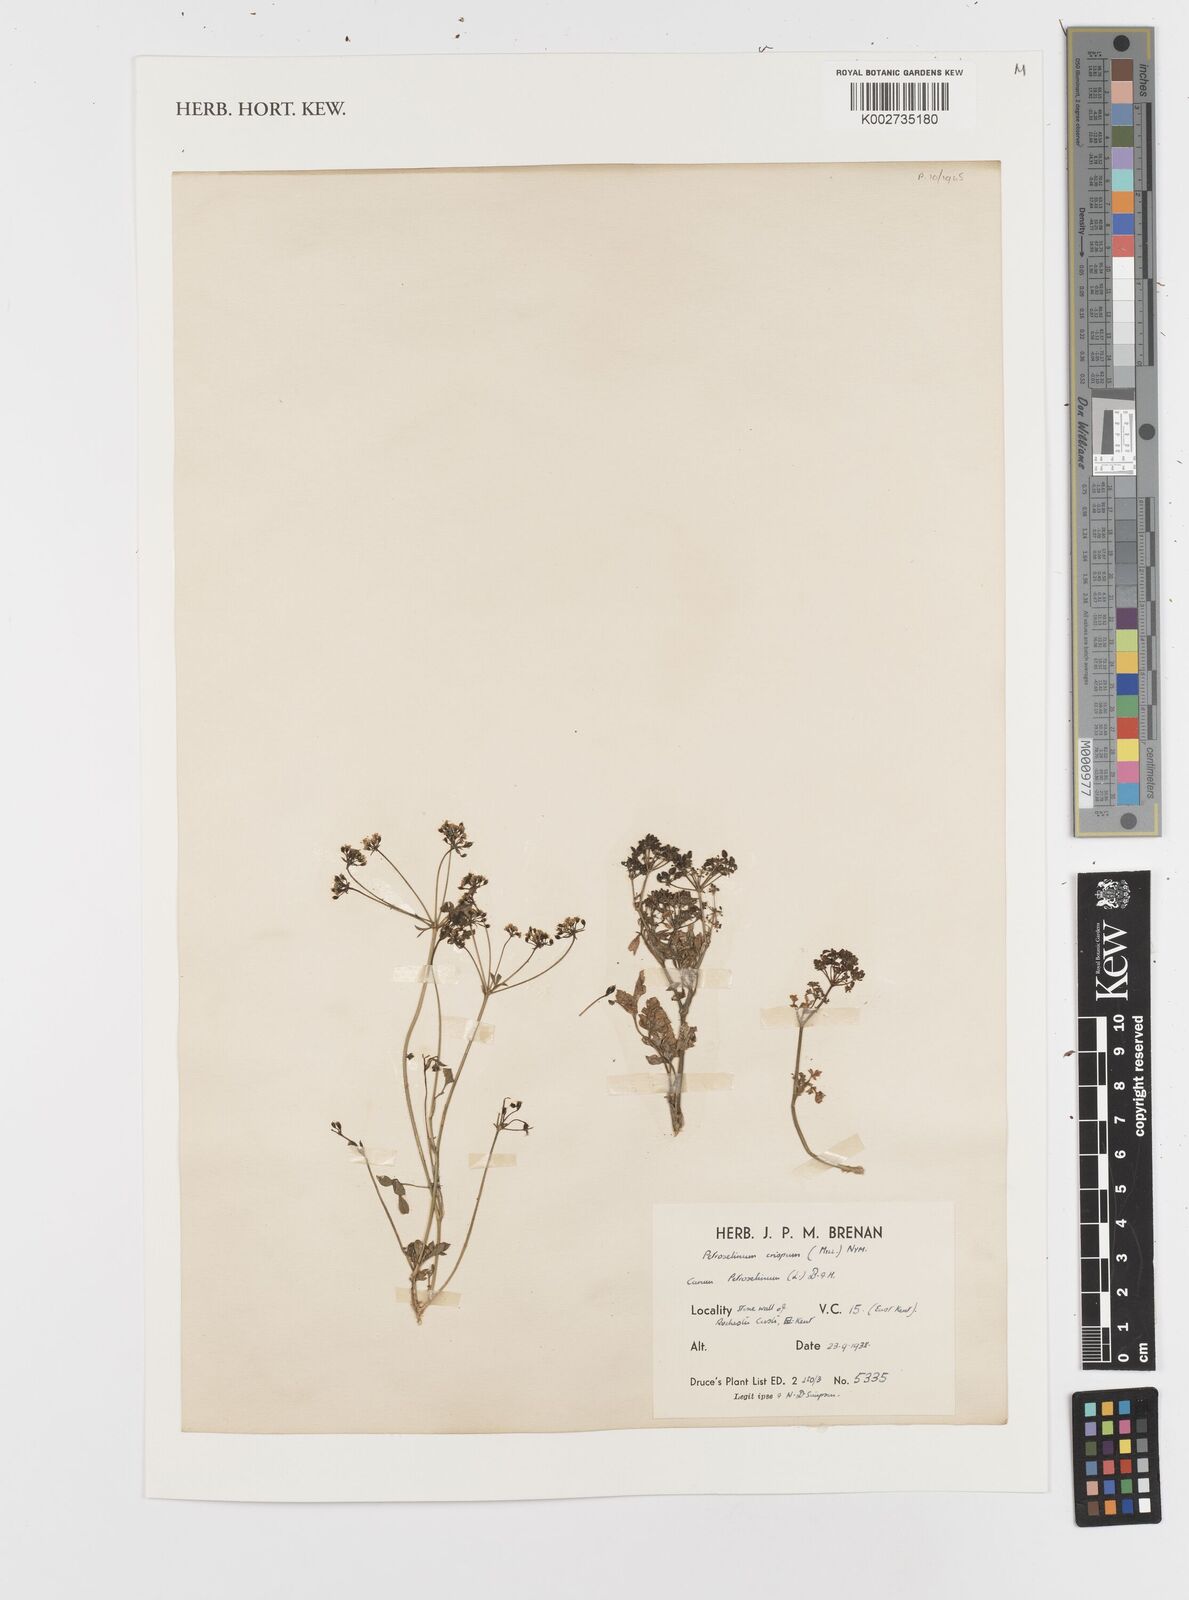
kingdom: Plantae
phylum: Tracheophyta
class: Magnoliopsida
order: Apiales
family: Apiaceae
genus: Petroselinum
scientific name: Petroselinum crispum
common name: Parsley
